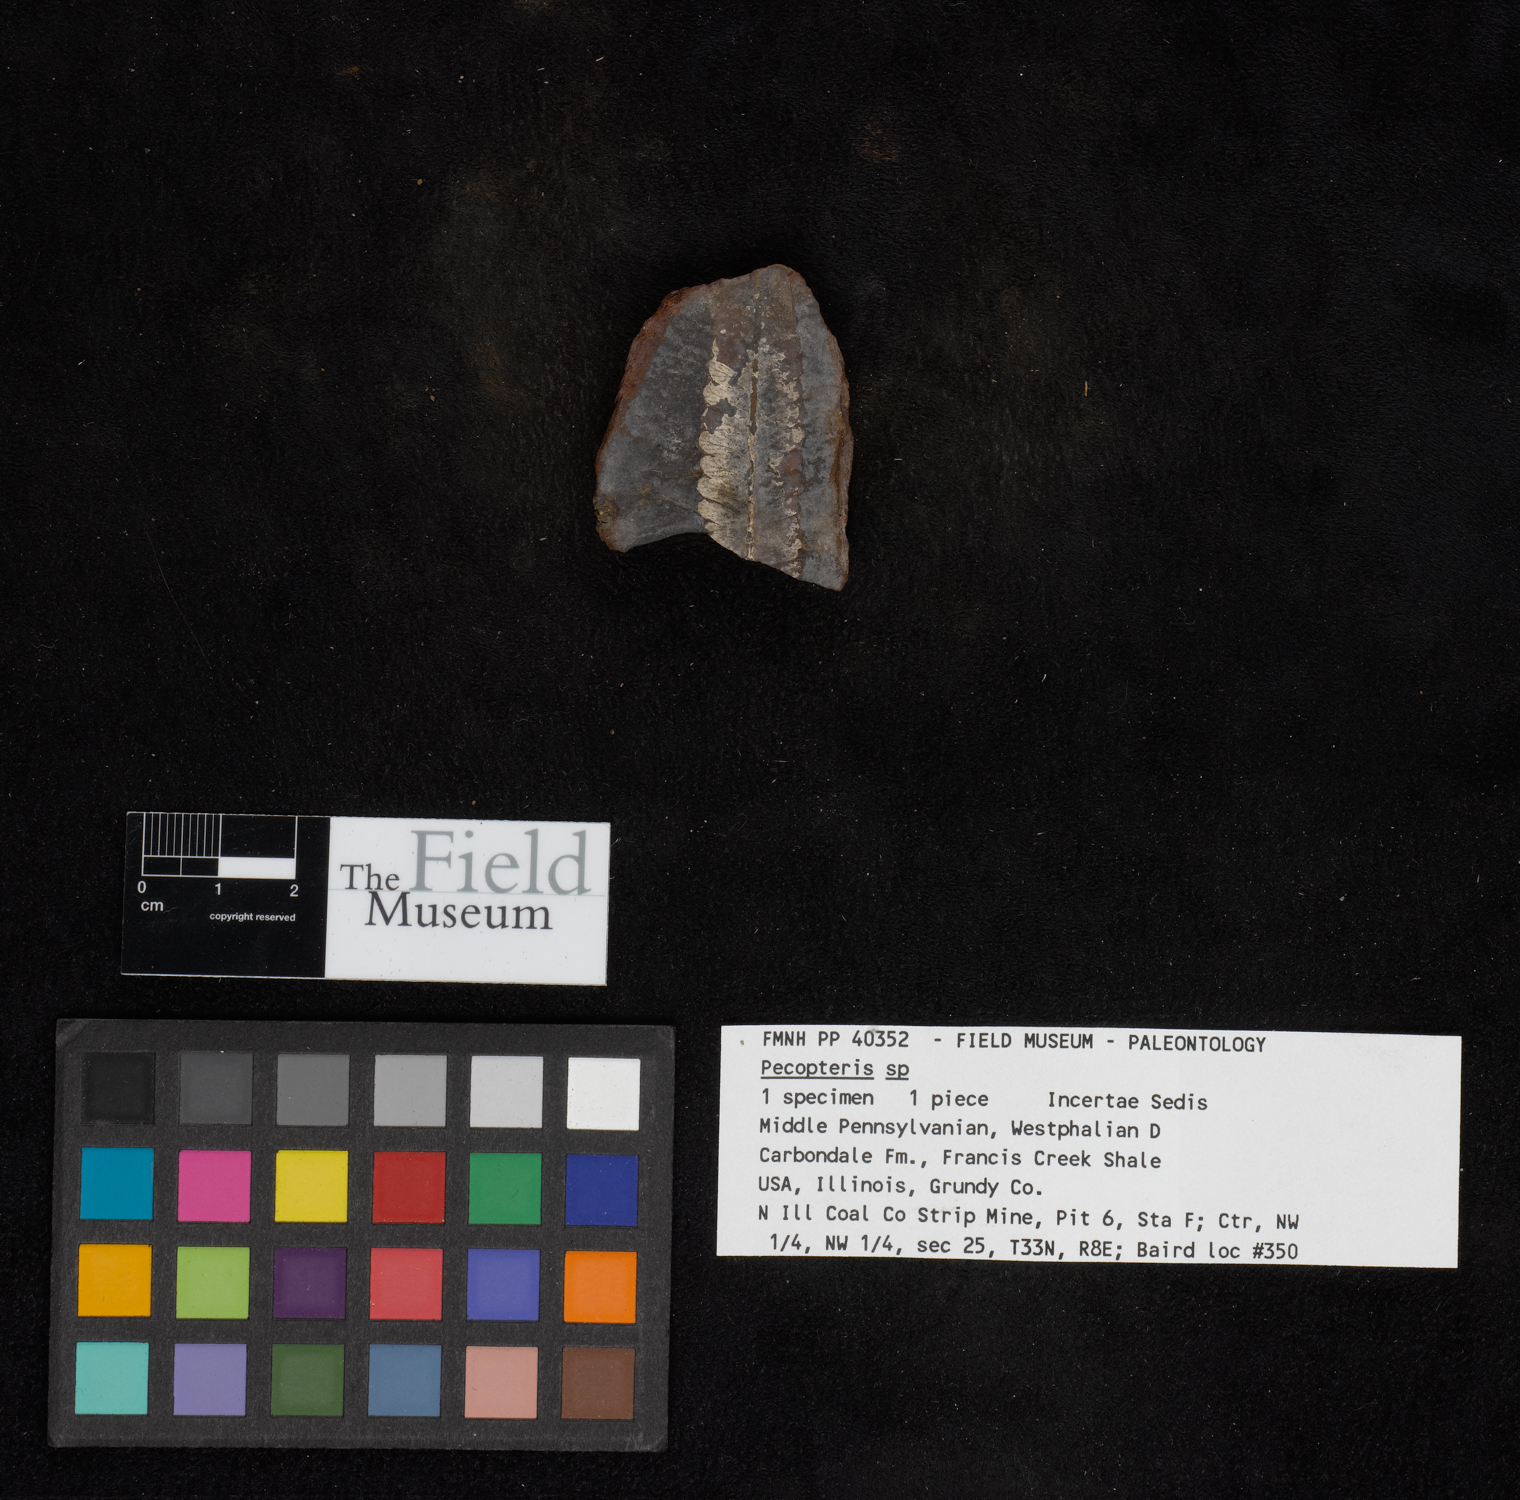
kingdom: Plantae
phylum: Tracheophyta
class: Polypodiopsida
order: Marattiales
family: Asterothecaceae
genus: Pecopteris
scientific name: Pecopteris
